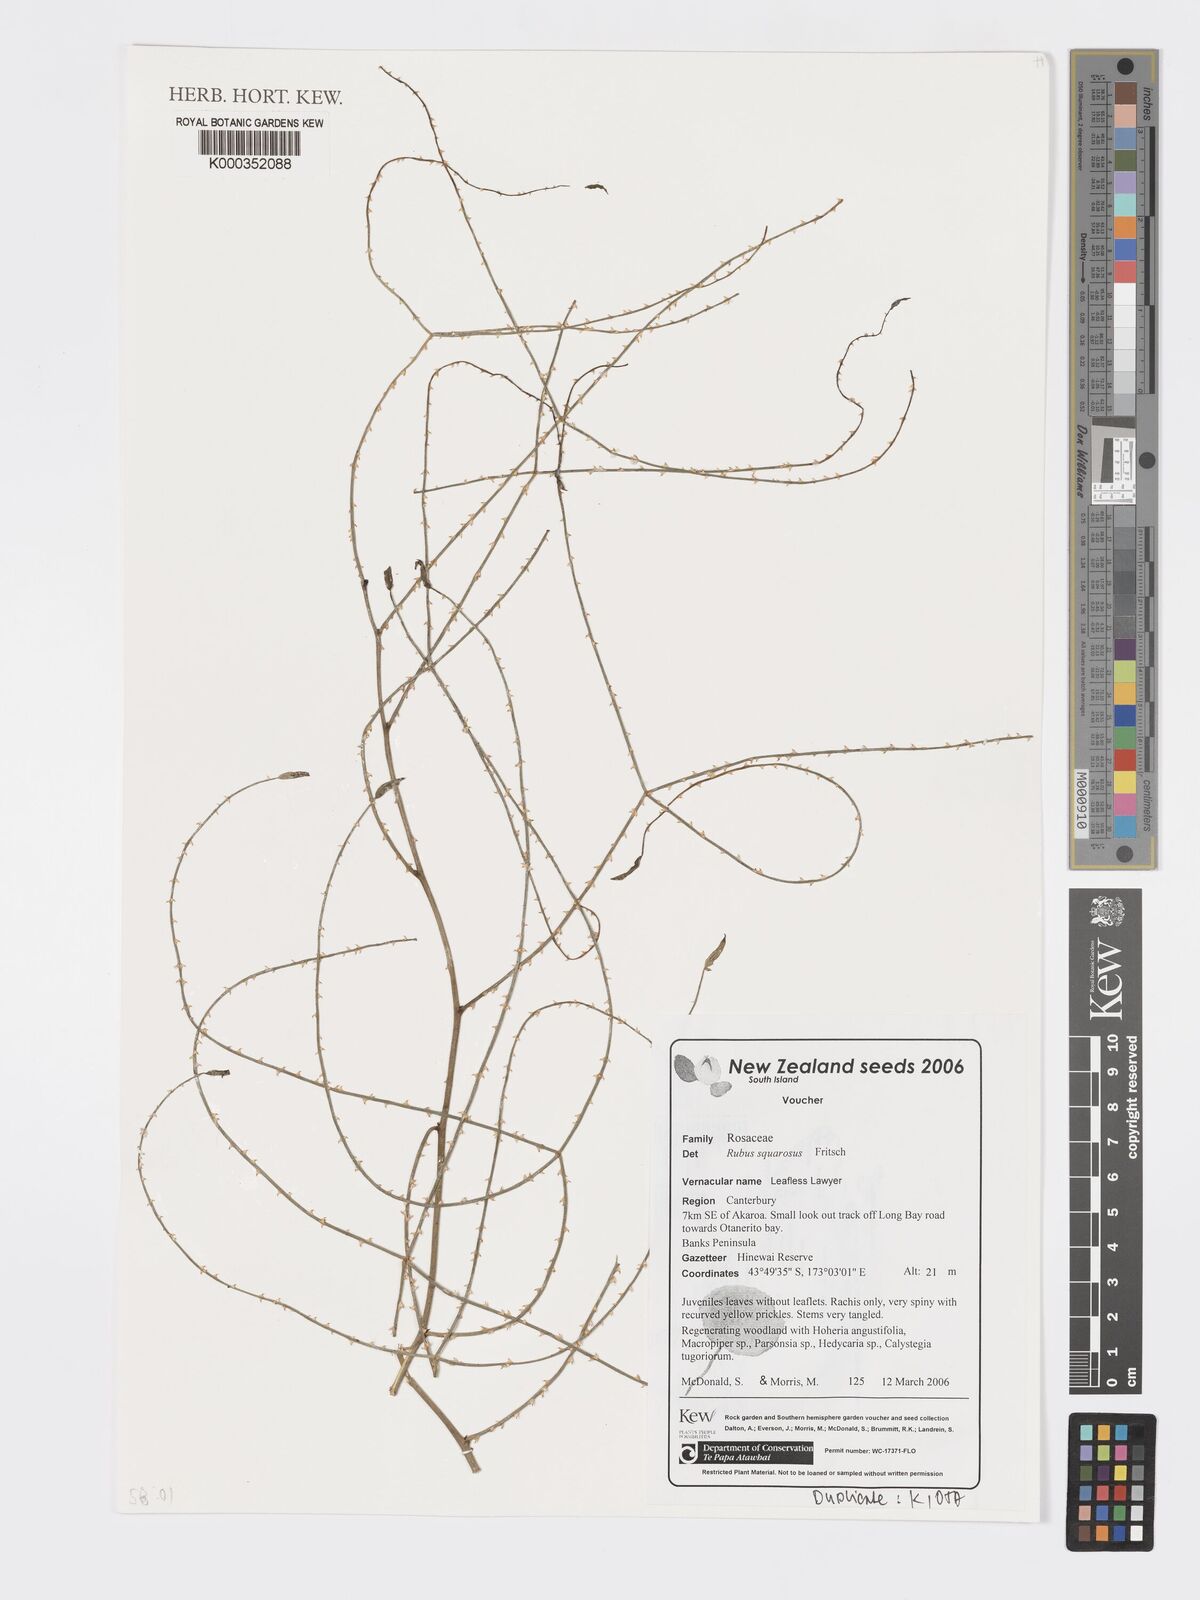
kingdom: Plantae
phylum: Tracheophyta
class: Magnoliopsida
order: Rosales
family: Rosaceae
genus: Rubus
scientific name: Rubus squarrosus
